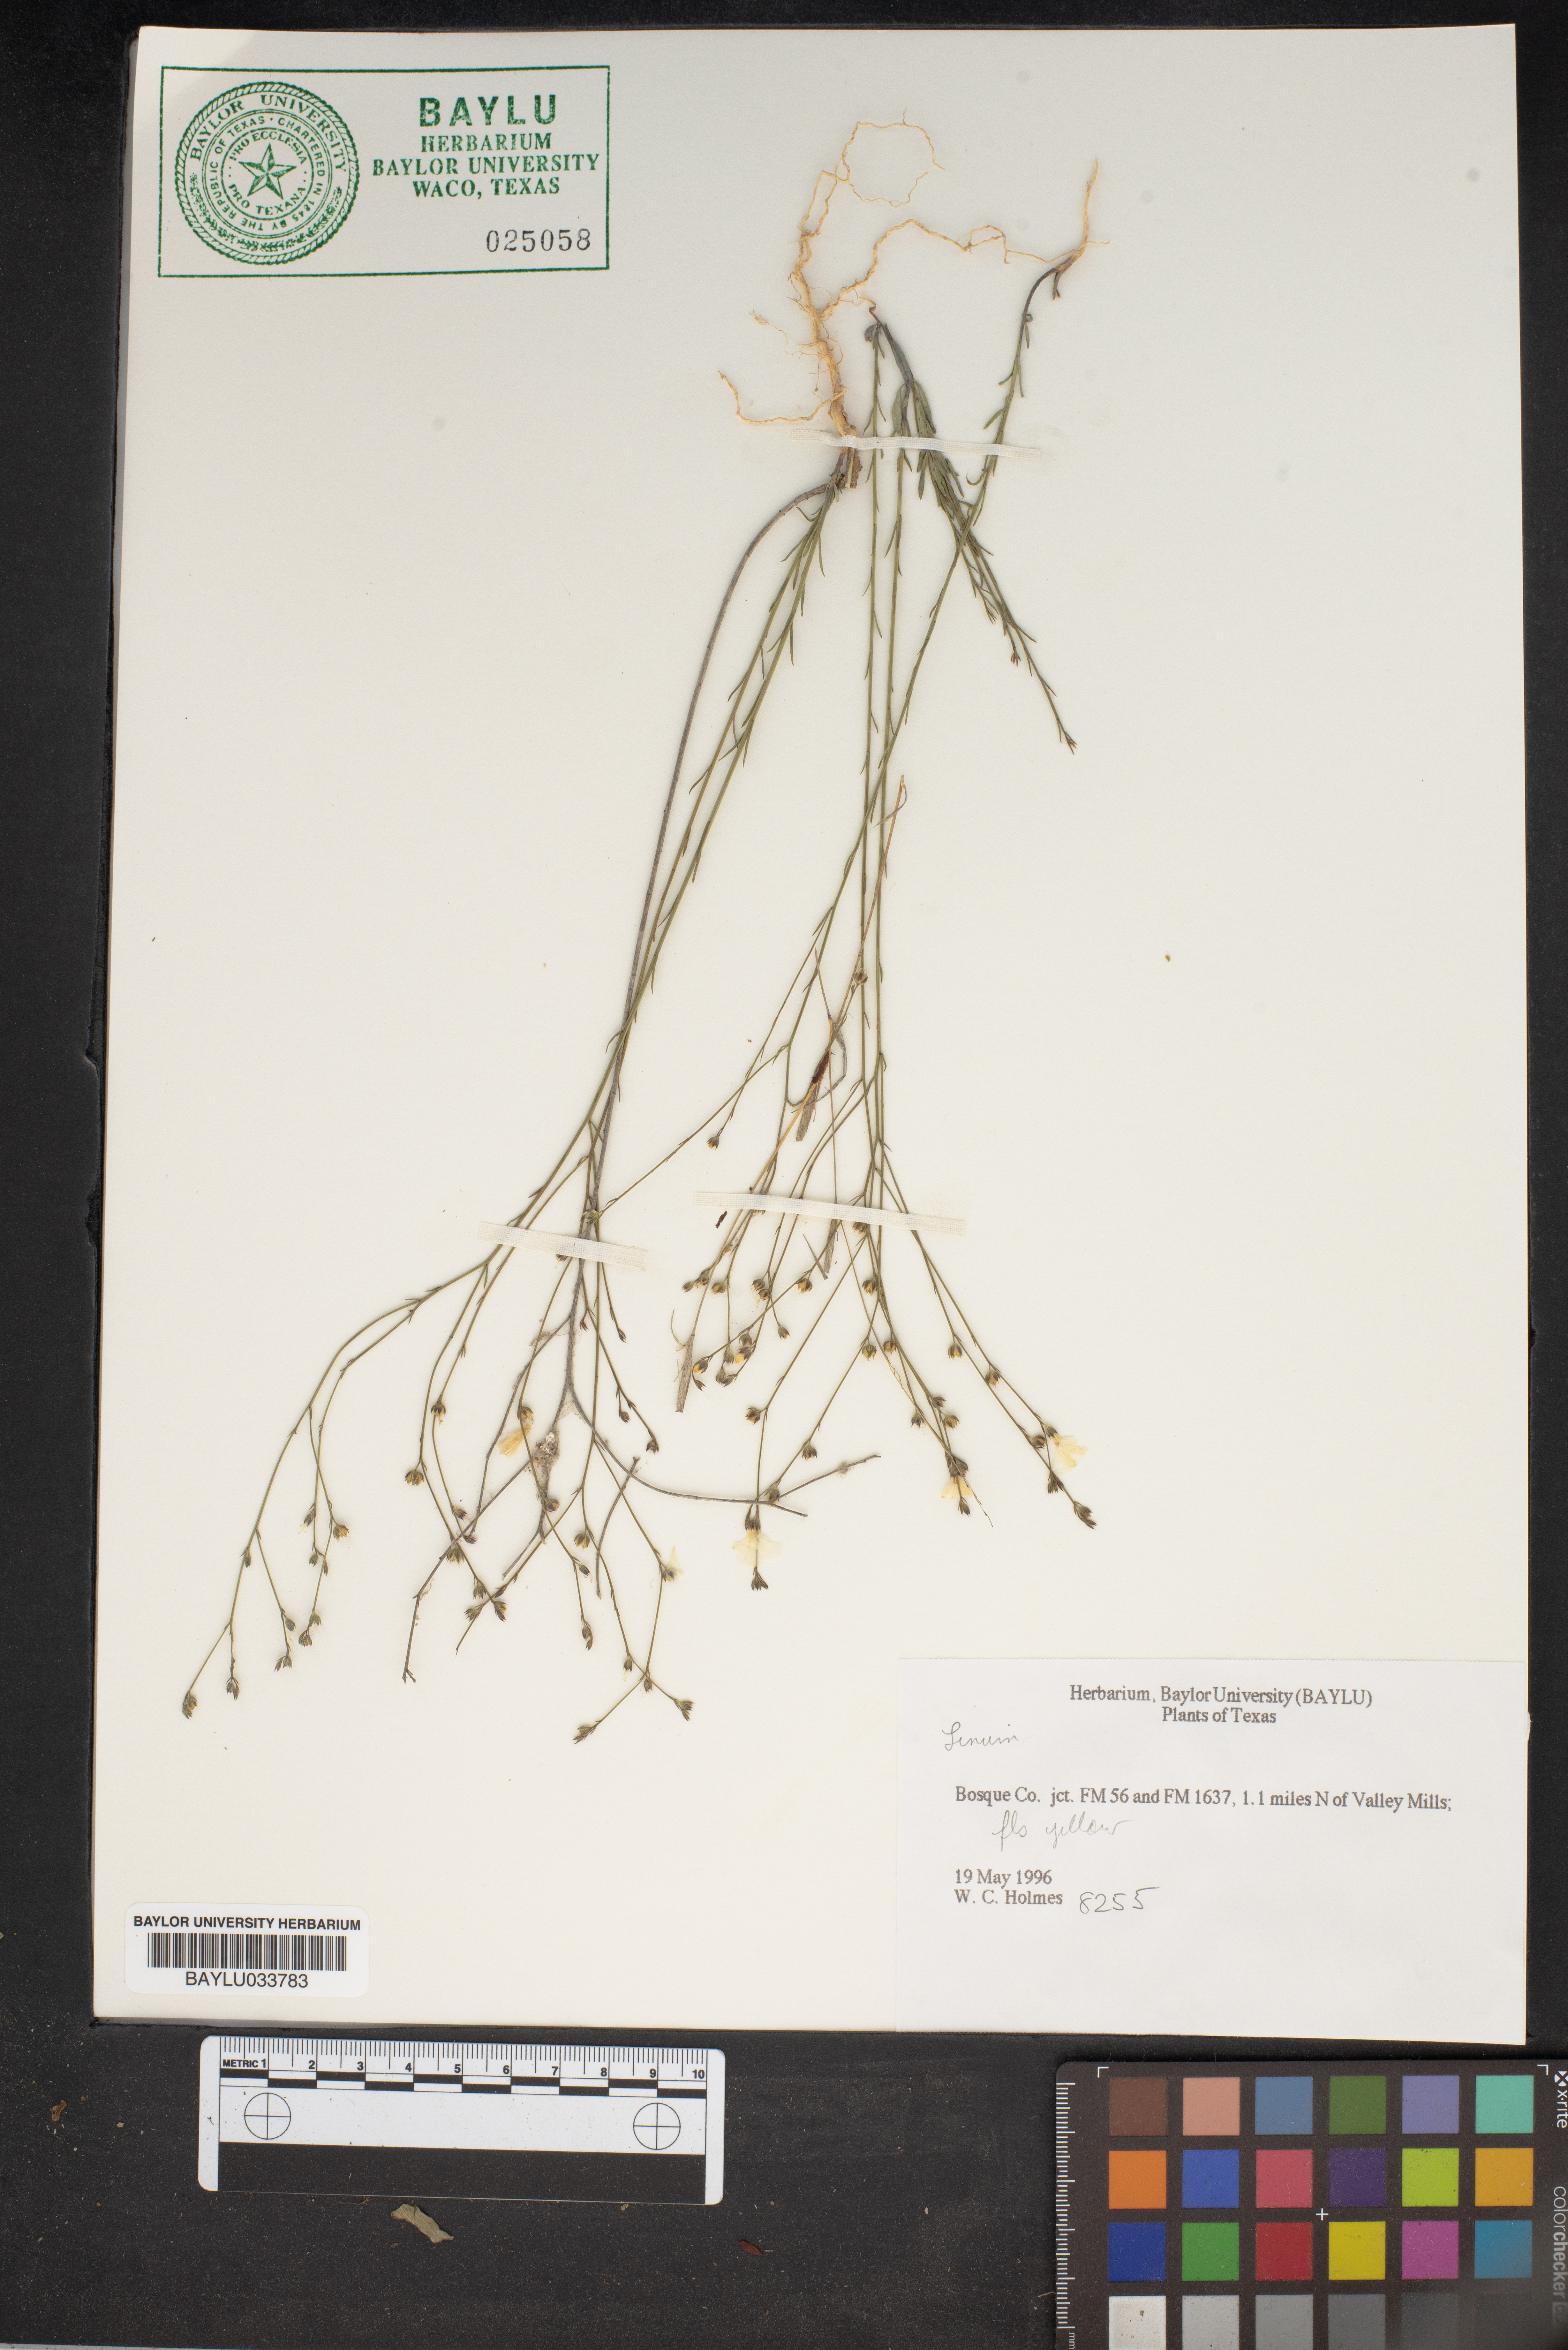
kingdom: Plantae
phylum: Tracheophyta
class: Magnoliopsida
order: Malpighiales
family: Linaceae
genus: Linum
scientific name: Linum
